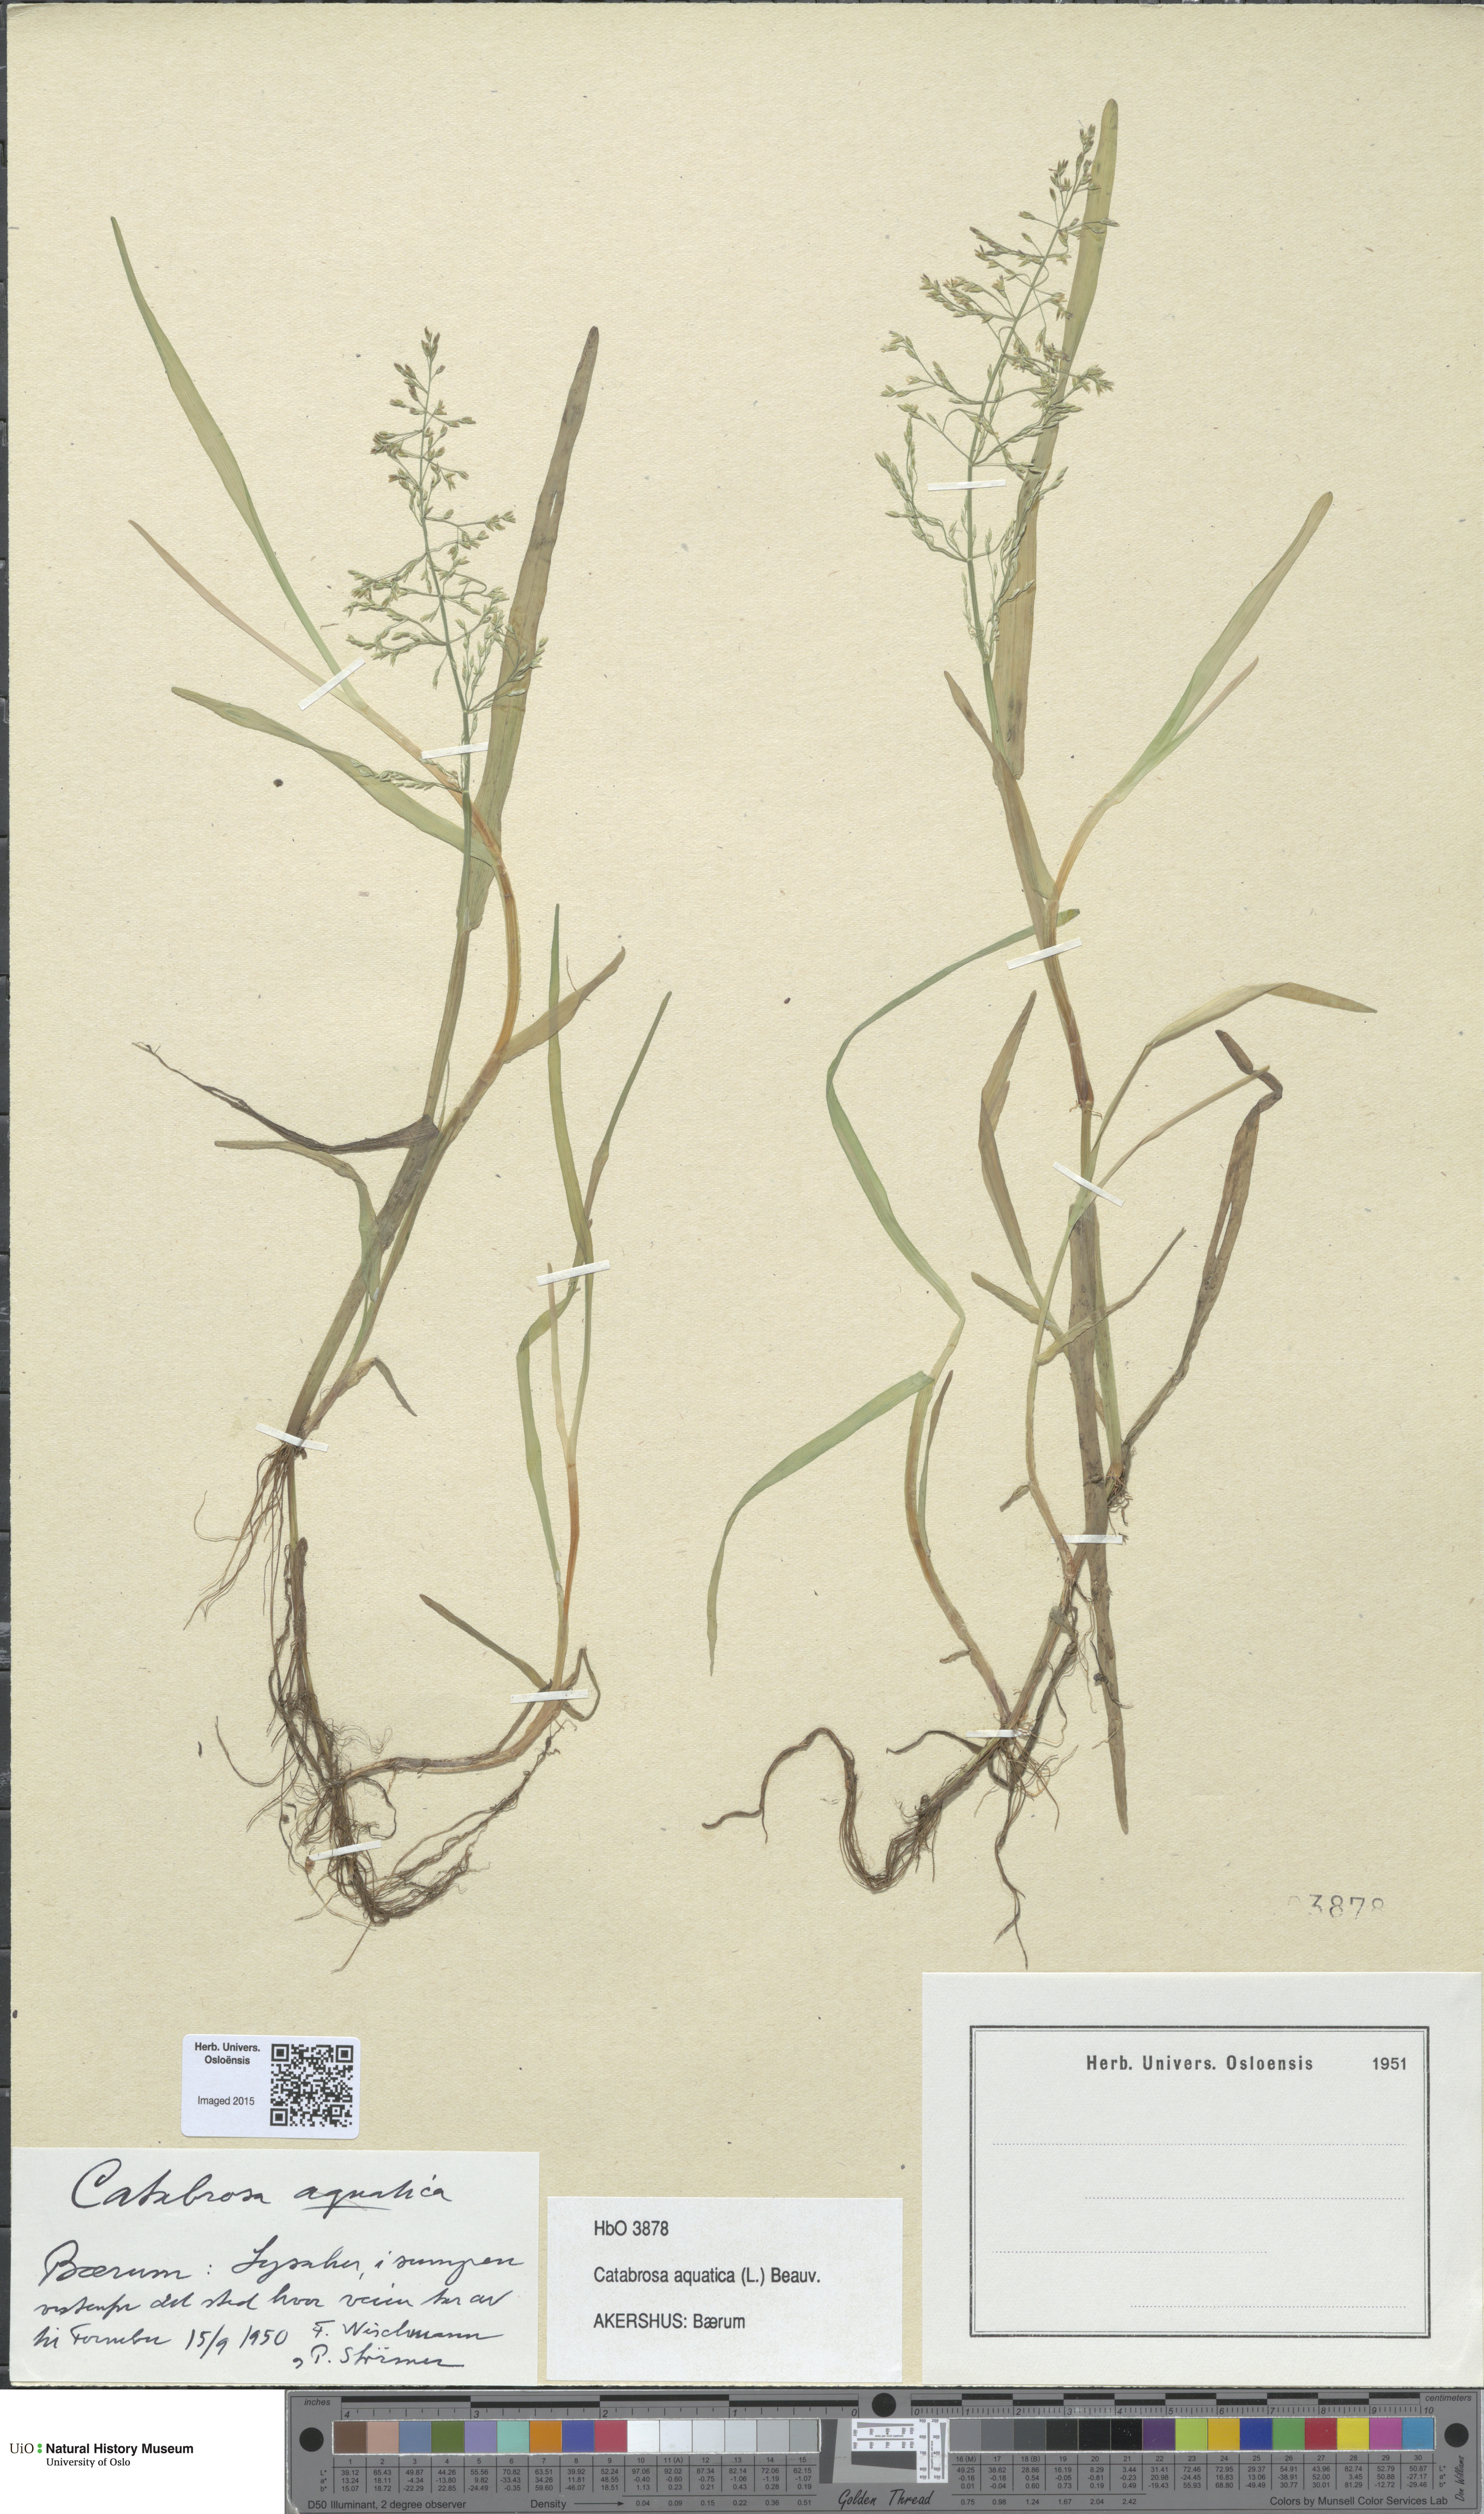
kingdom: Plantae
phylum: Tracheophyta
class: Liliopsida
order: Poales
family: Poaceae
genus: Catabrosa
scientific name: Catabrosa aquatica
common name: Whorl-grass
